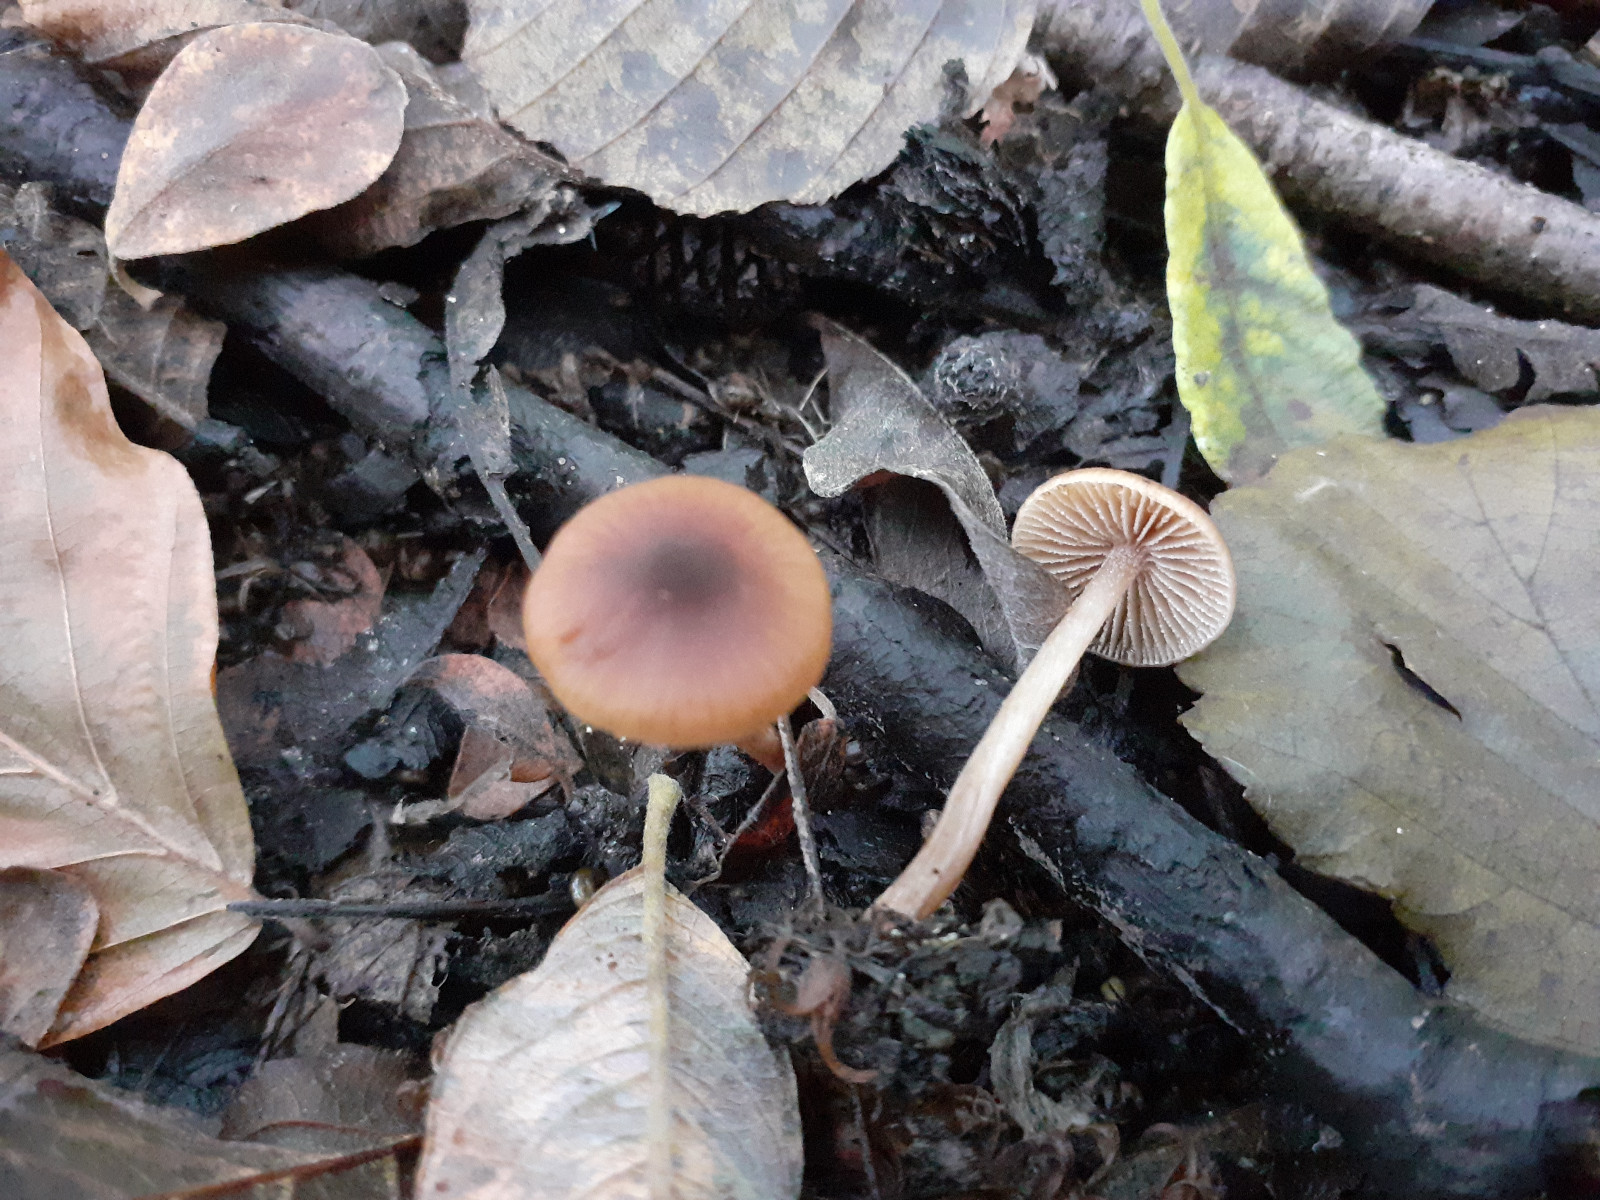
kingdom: Fungi
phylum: Basidiomycota
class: Agaricomycetes
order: Agaricales
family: Hymenogastraceae
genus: Naucoria
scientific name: Naucoria salicis
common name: pile-knaphat
